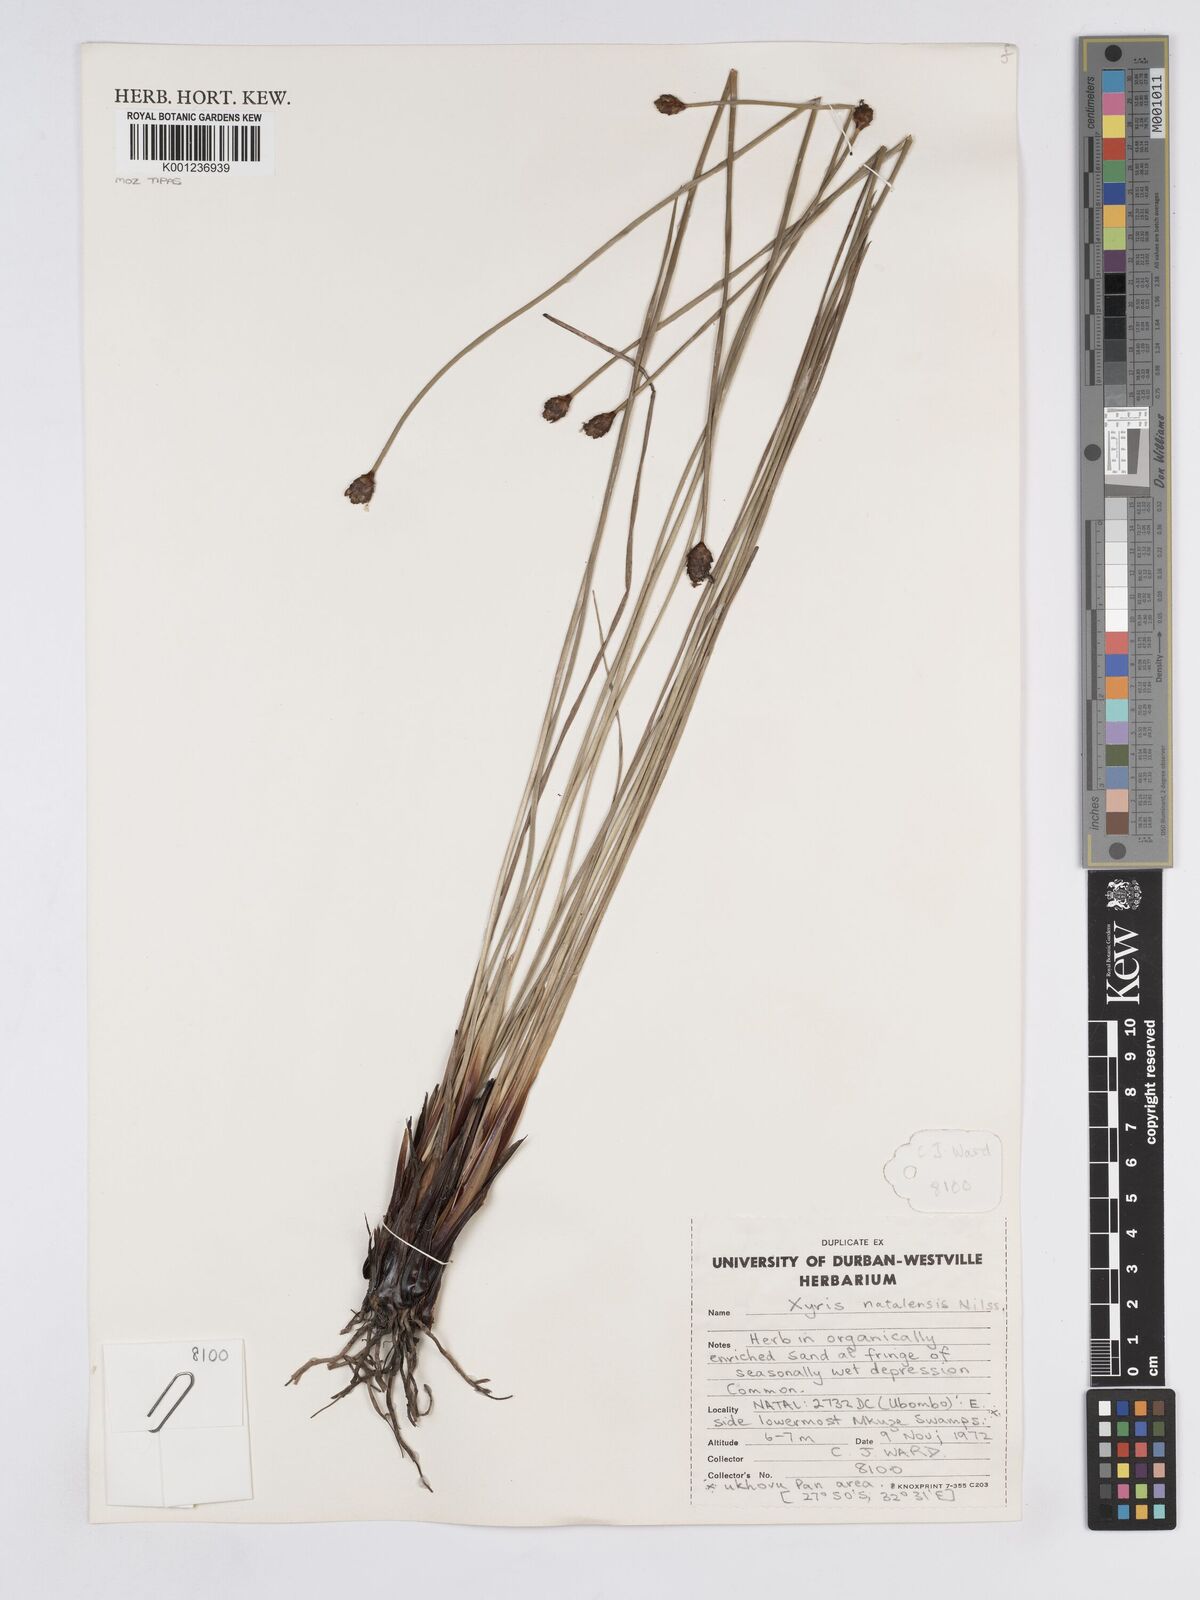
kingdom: Plantae
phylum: Tracheophyta
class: Liliopsida
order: Poales
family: Xyridaceae
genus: Xyris
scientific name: Xyris natalensis
